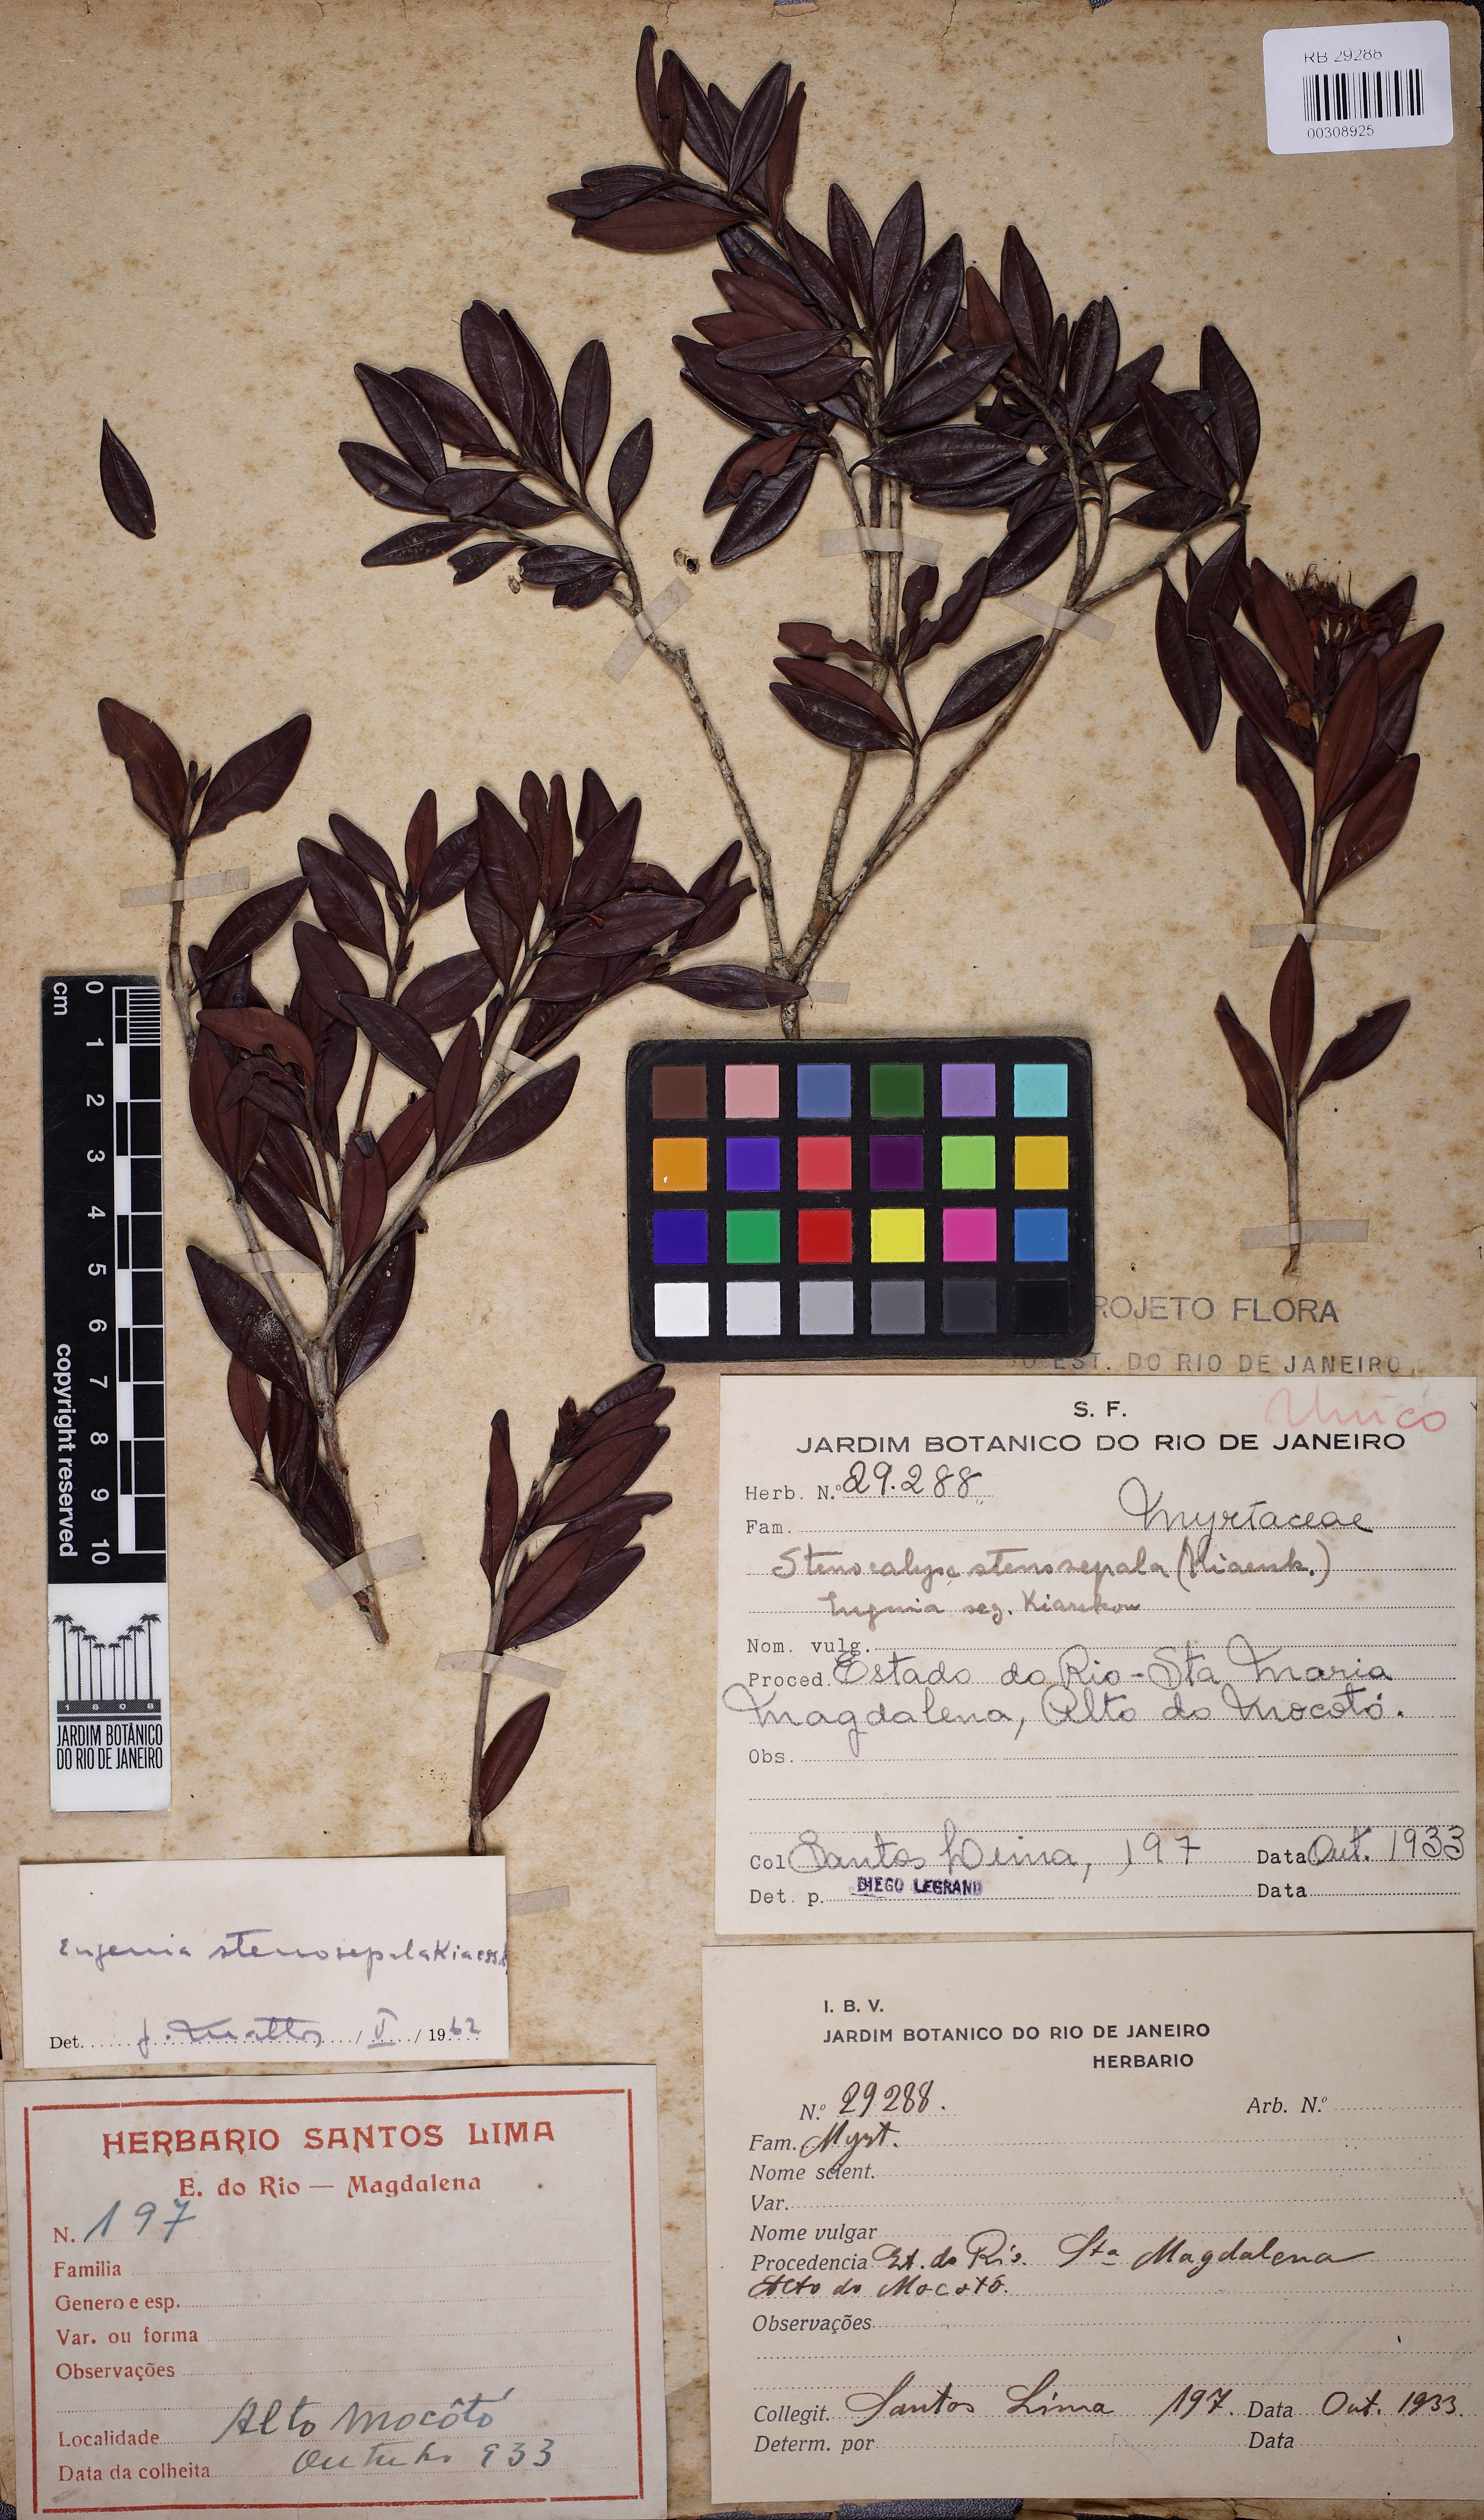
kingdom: Plantae
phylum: Tracheophyta
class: Magnoliopsida
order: Myrtales
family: Myrtaceae
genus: Eugenia
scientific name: Eugenia stenosepala
